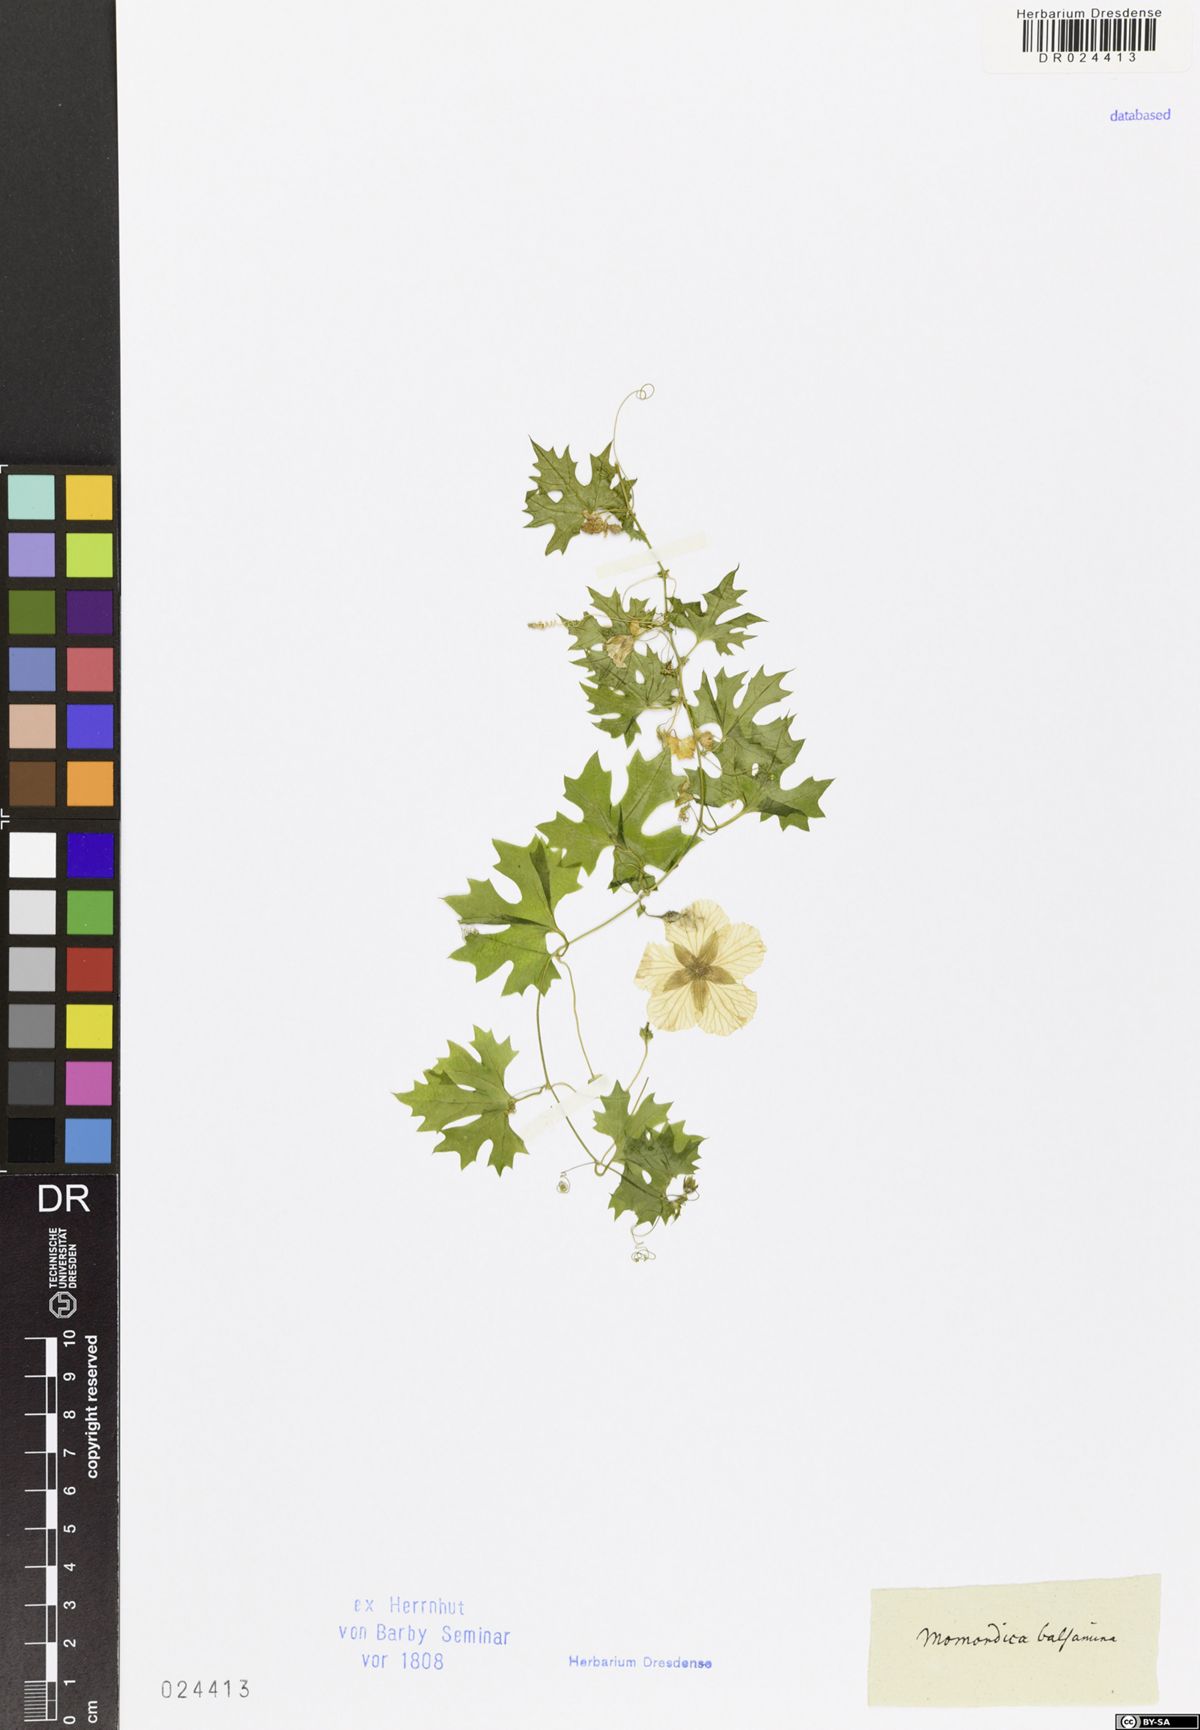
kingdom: Plantae
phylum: Tracheophyta
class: Magnoliopsida
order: Cucurbitales
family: Cucurbitaceae
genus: Momordica
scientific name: Momordica balsamina
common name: Southern balsampear
